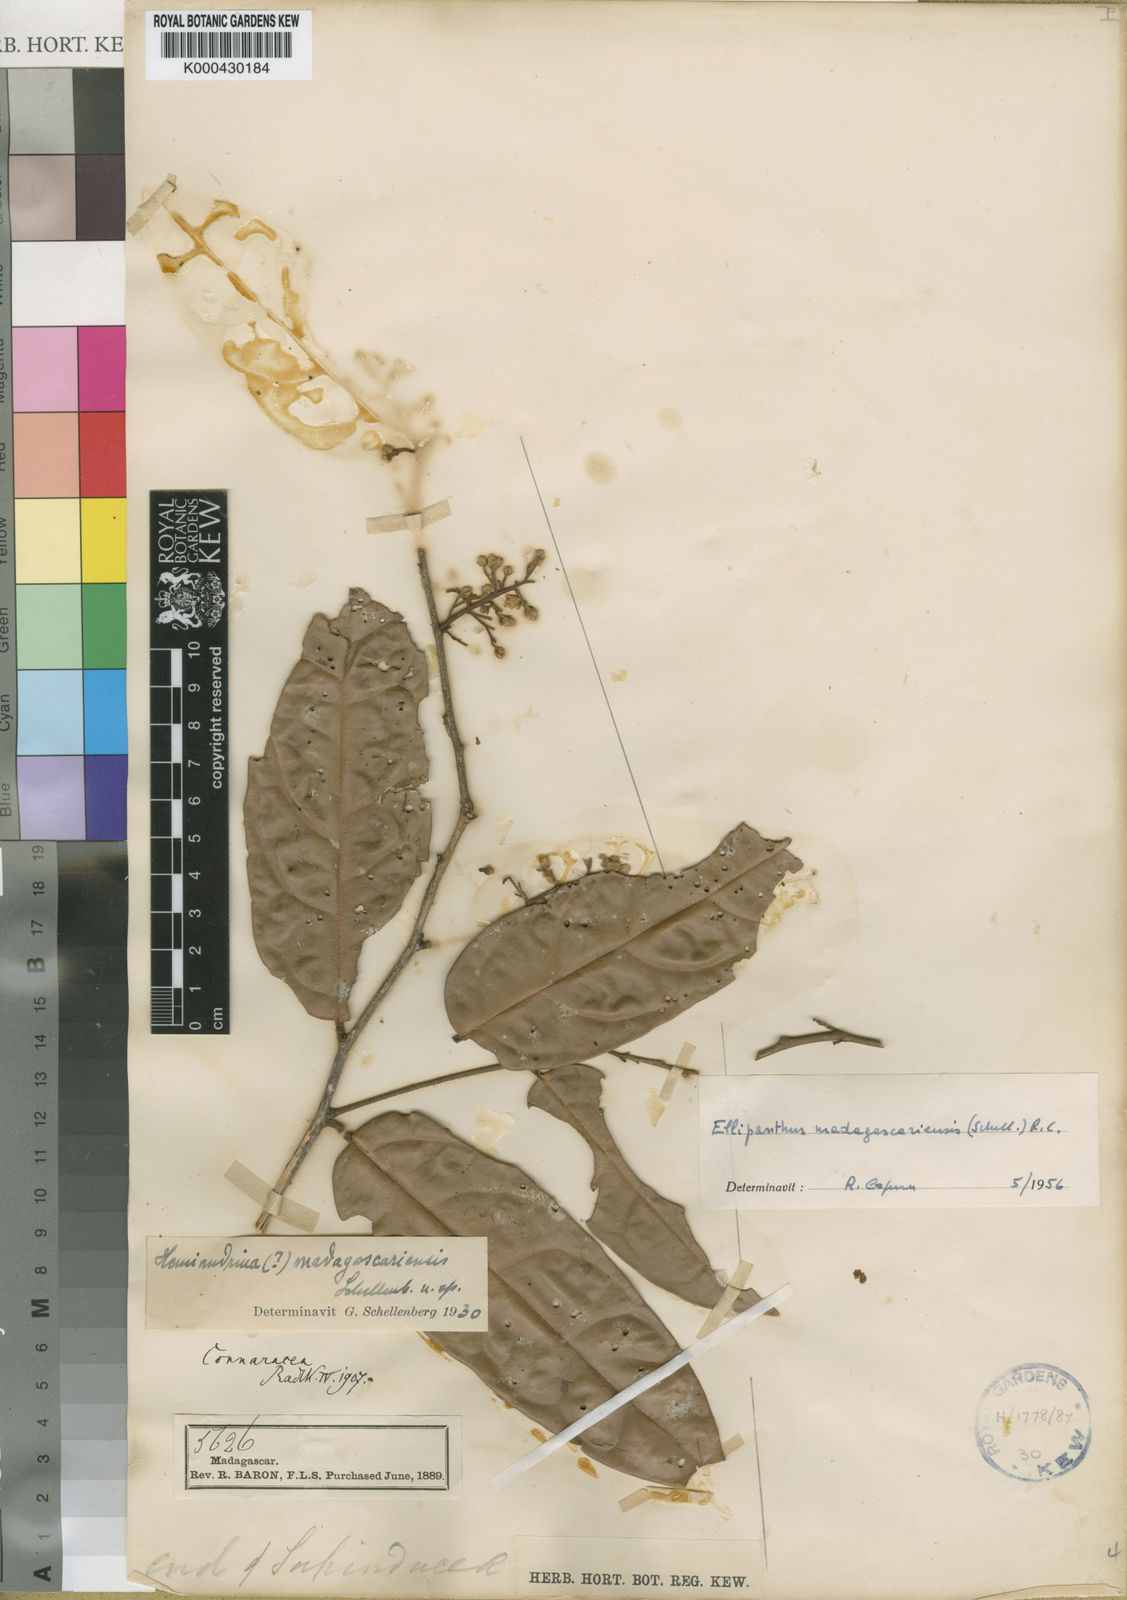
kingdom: Plantae
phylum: Tracheophyta
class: Magnoliopsida
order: Oxalidales
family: Connaraceae
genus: Ellipanthus
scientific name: Ellipanthus madagascariensis
